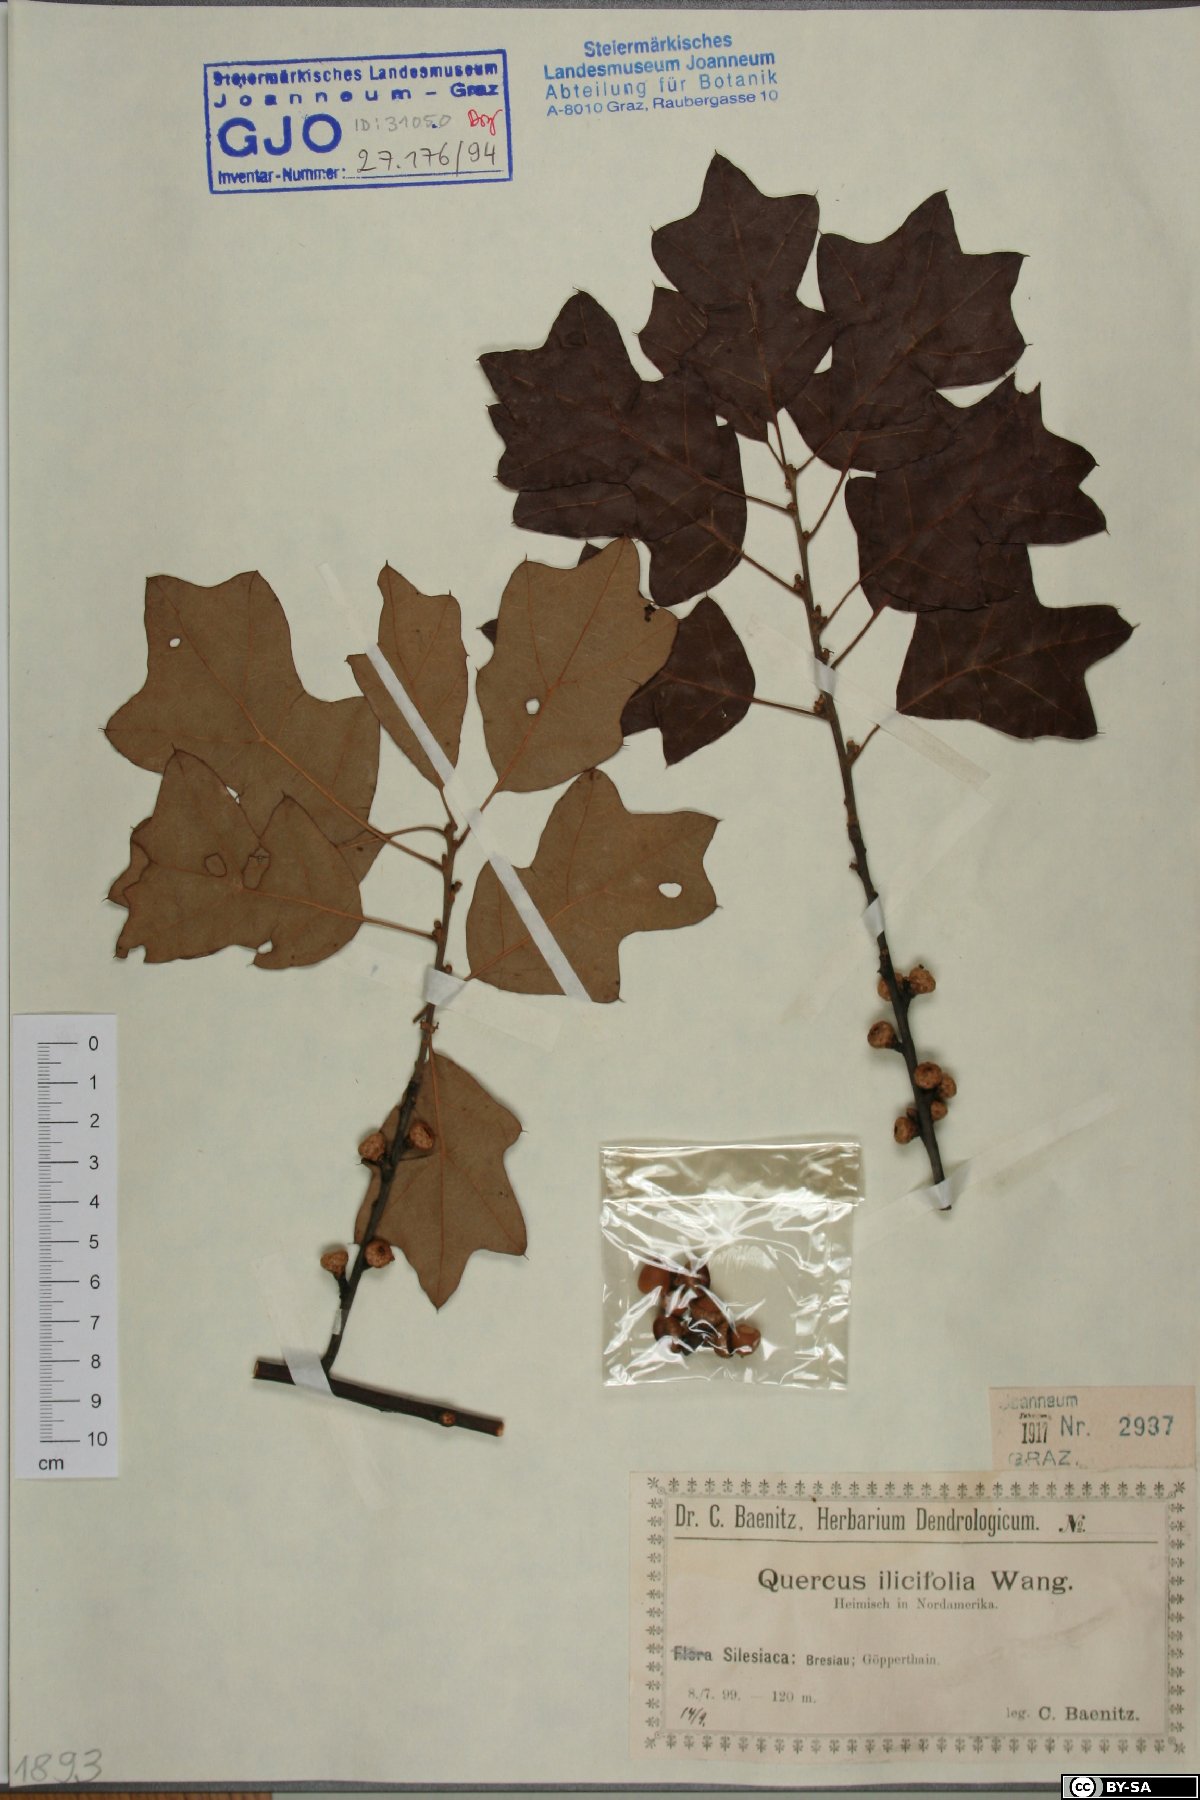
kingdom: Plantae
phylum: Tracheophyta
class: Magnoliopsida
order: Fagales
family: Fagaceae
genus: Quercus
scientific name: Quercus ilicifolia
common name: Bear oak
